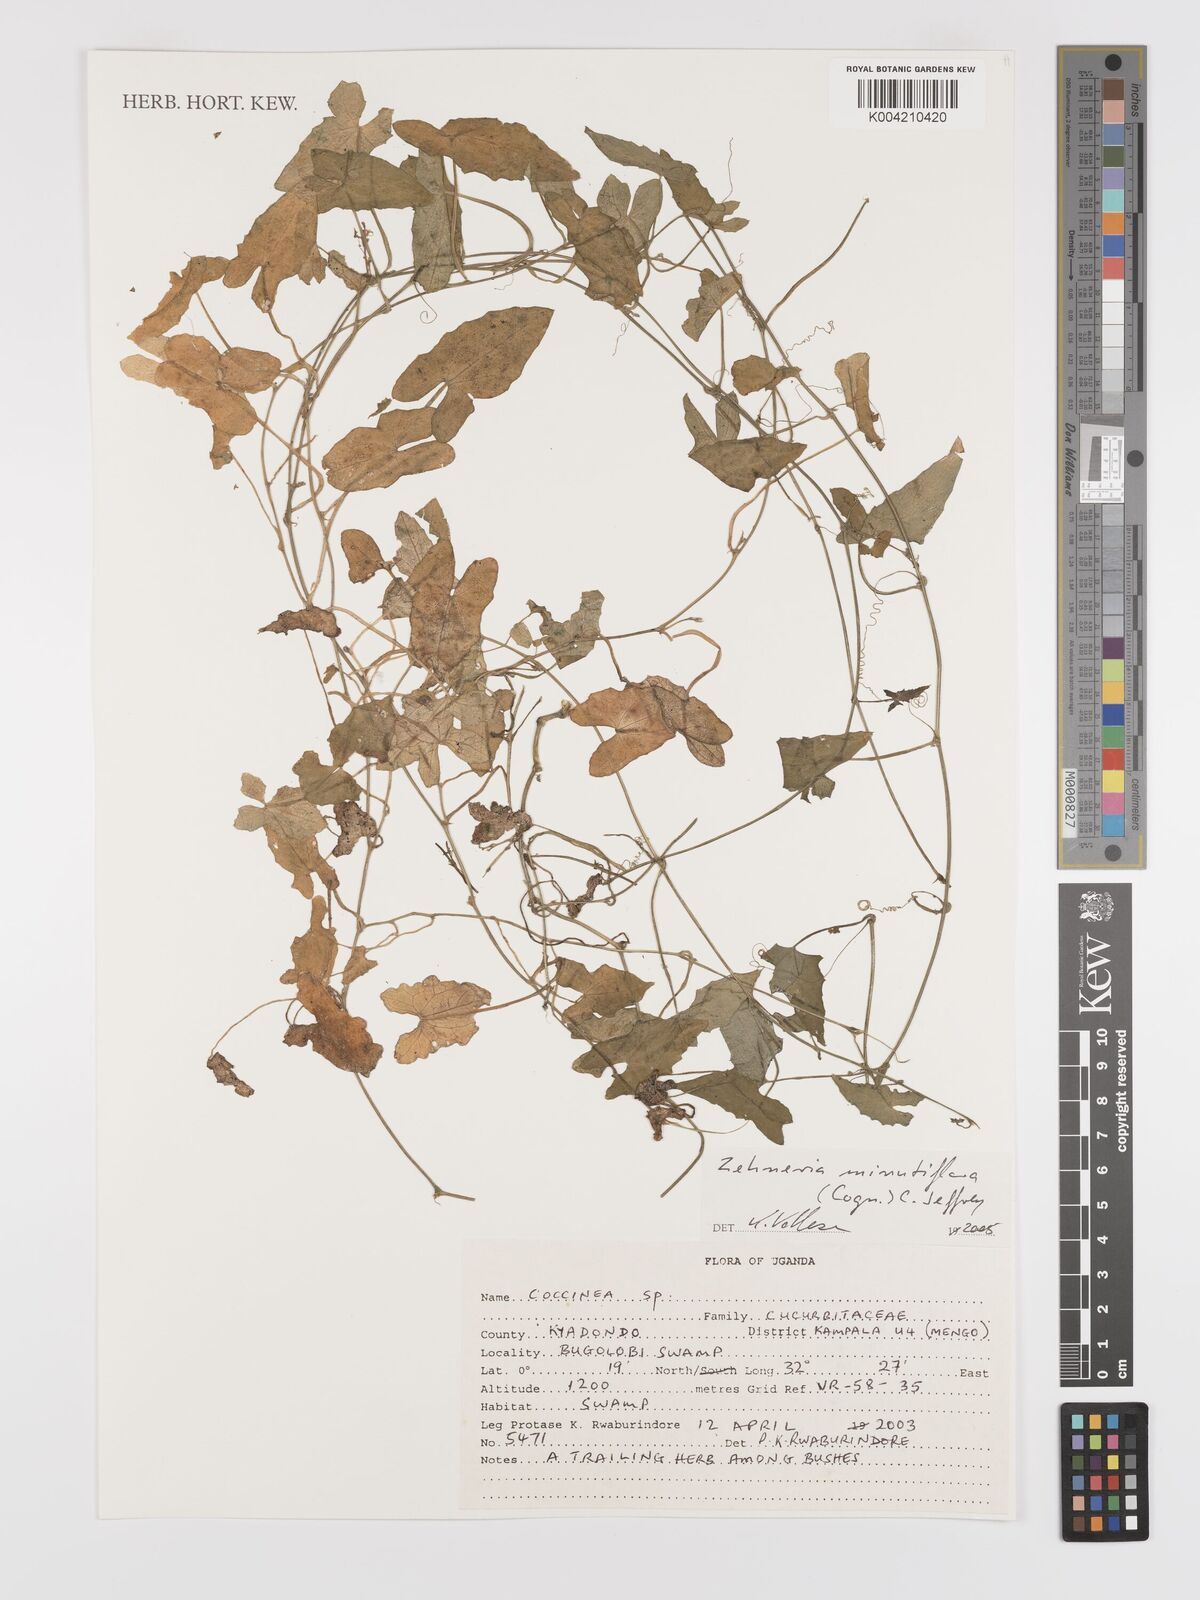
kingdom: Plantae
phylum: Tracheophyta
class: Magnoliopsida
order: Cucurbitales
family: Cucurbitaceae
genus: Zehneria
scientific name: Zehneria minutiflora
